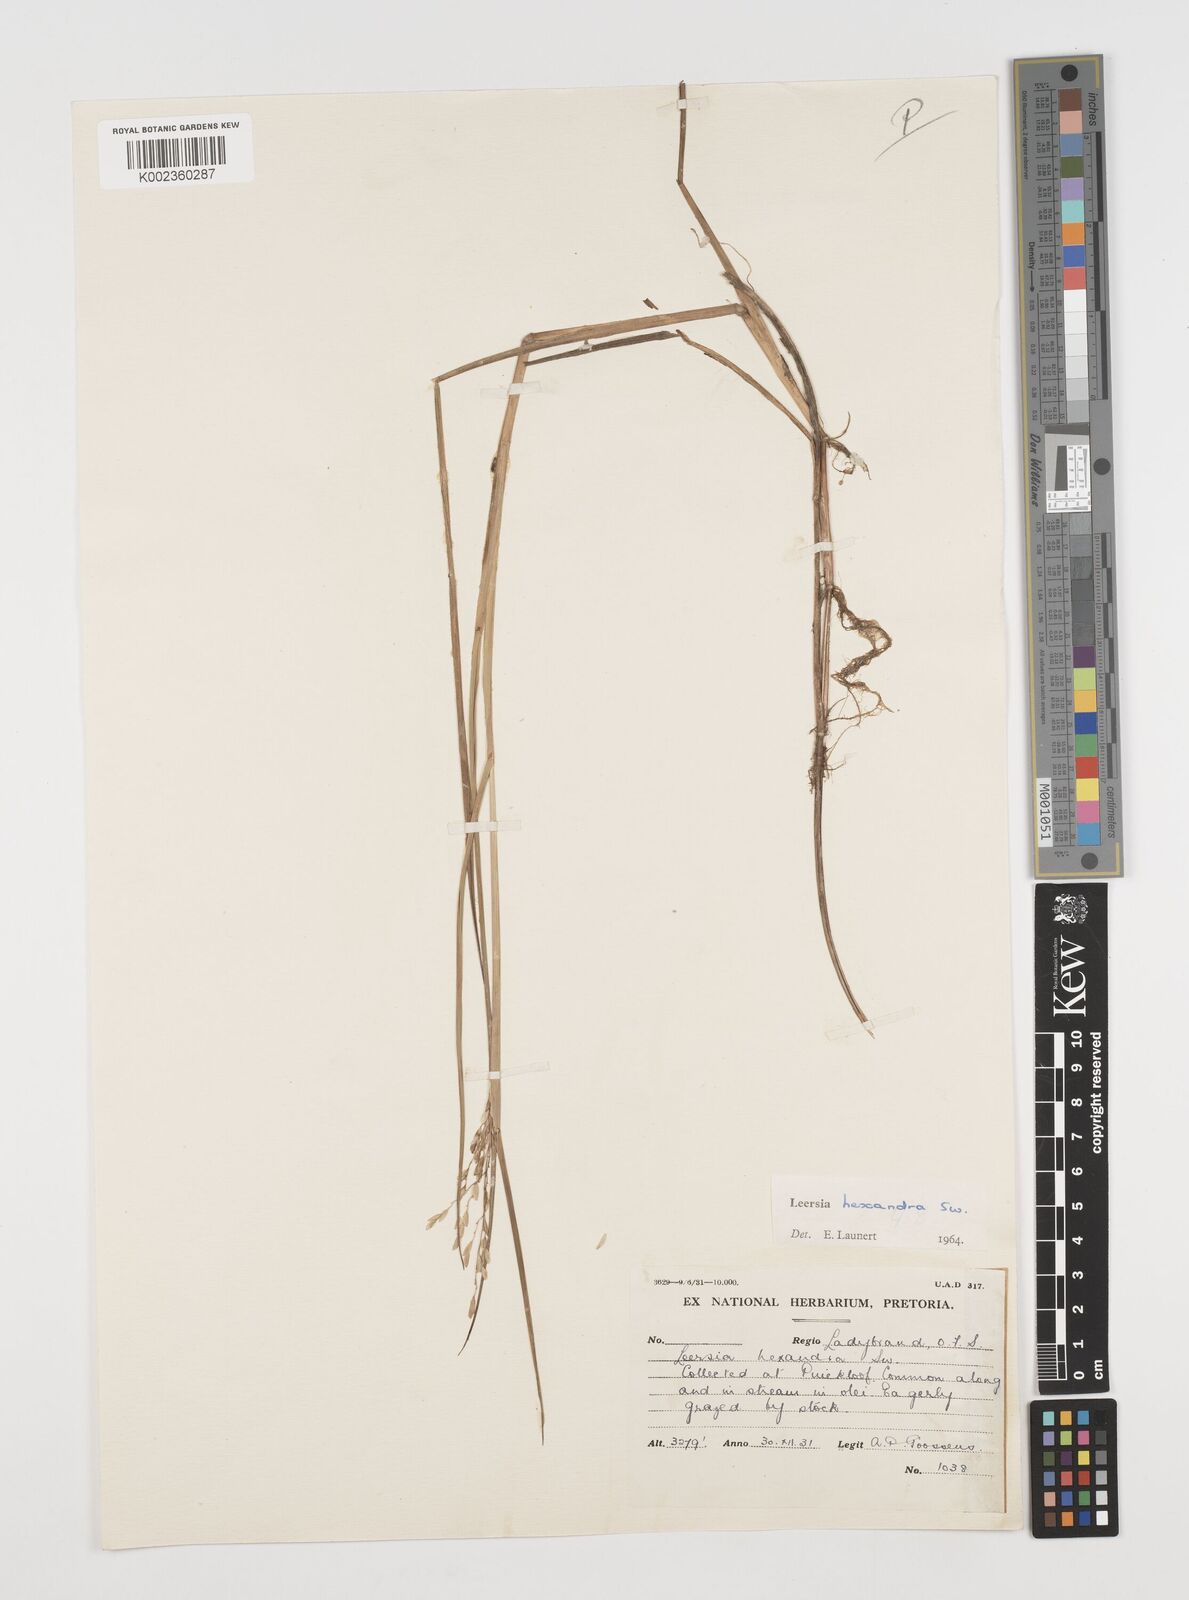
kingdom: Plantae
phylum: Tracheophyta
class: Liliopsida
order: Poales
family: Poaceae
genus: Leersia
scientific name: Leersia hexandra
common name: Southern cut grass
